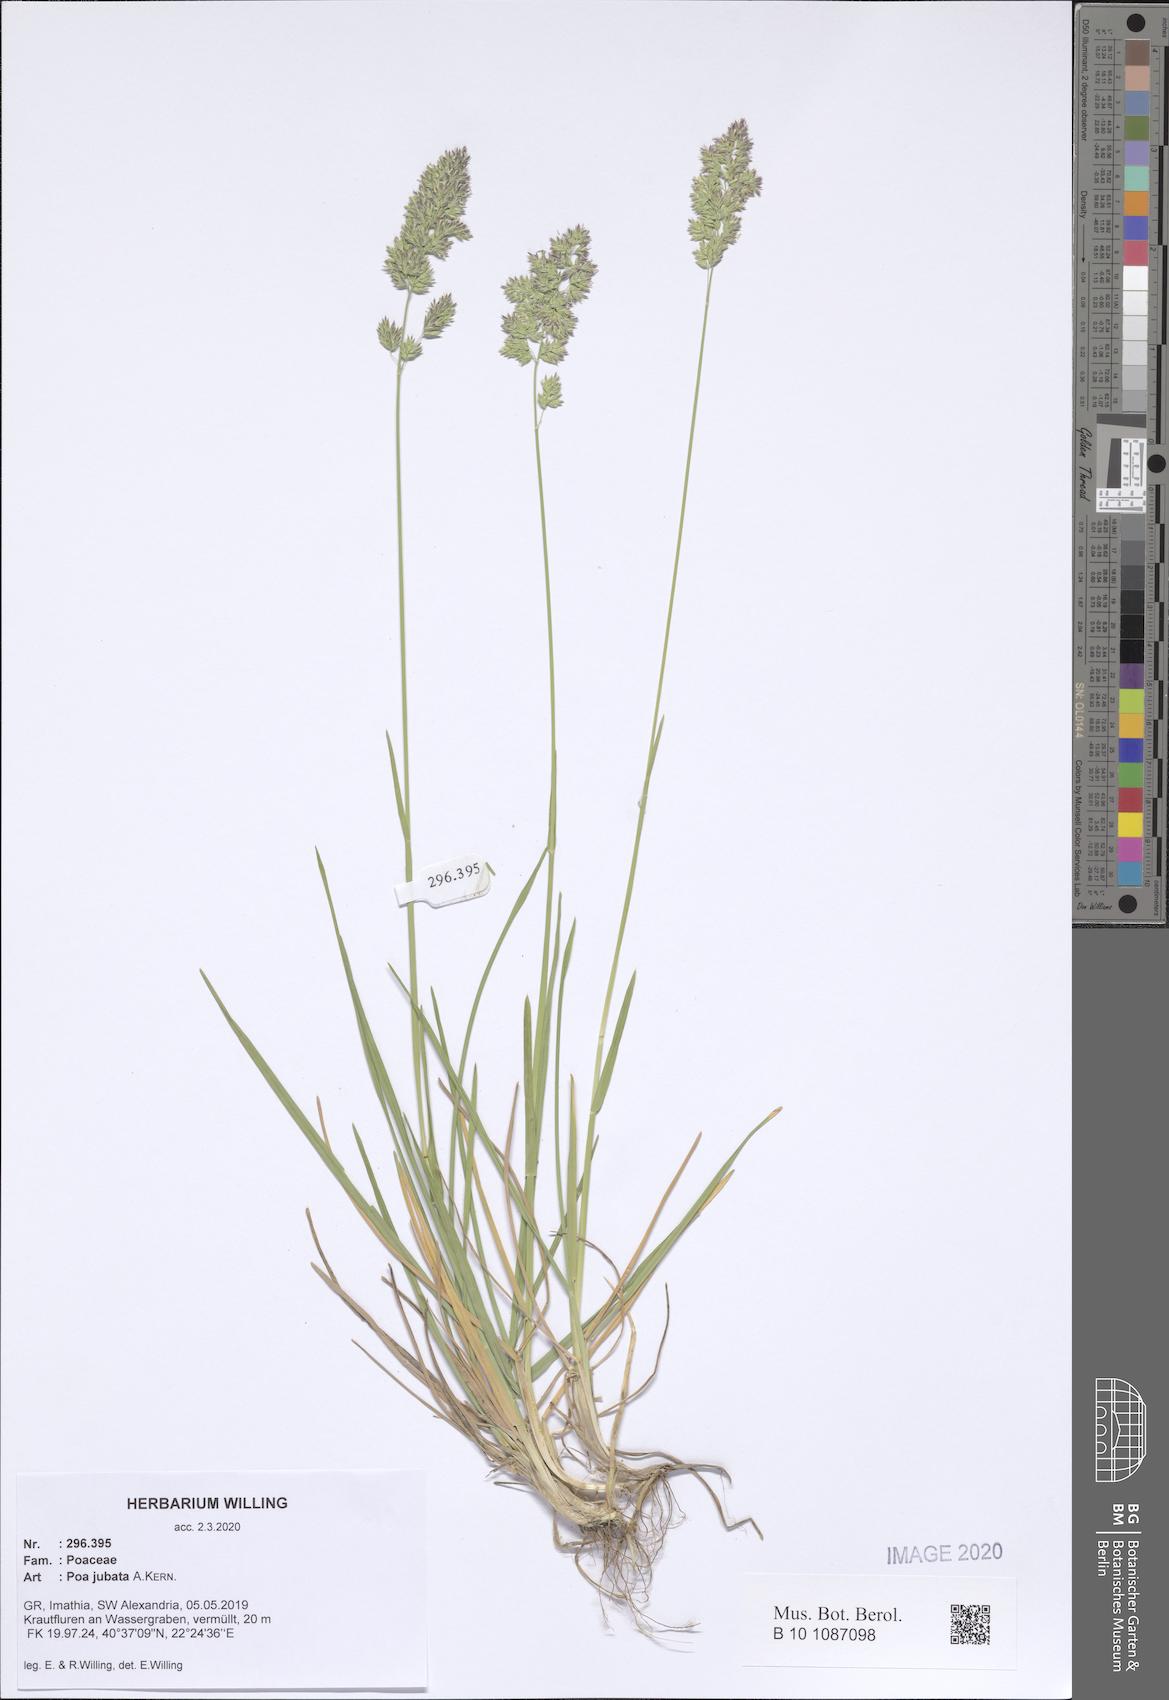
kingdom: Plantae
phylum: Tracheophyta
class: Liliopsida
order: Poales
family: Poaceae
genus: Poa
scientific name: Poa jubata
